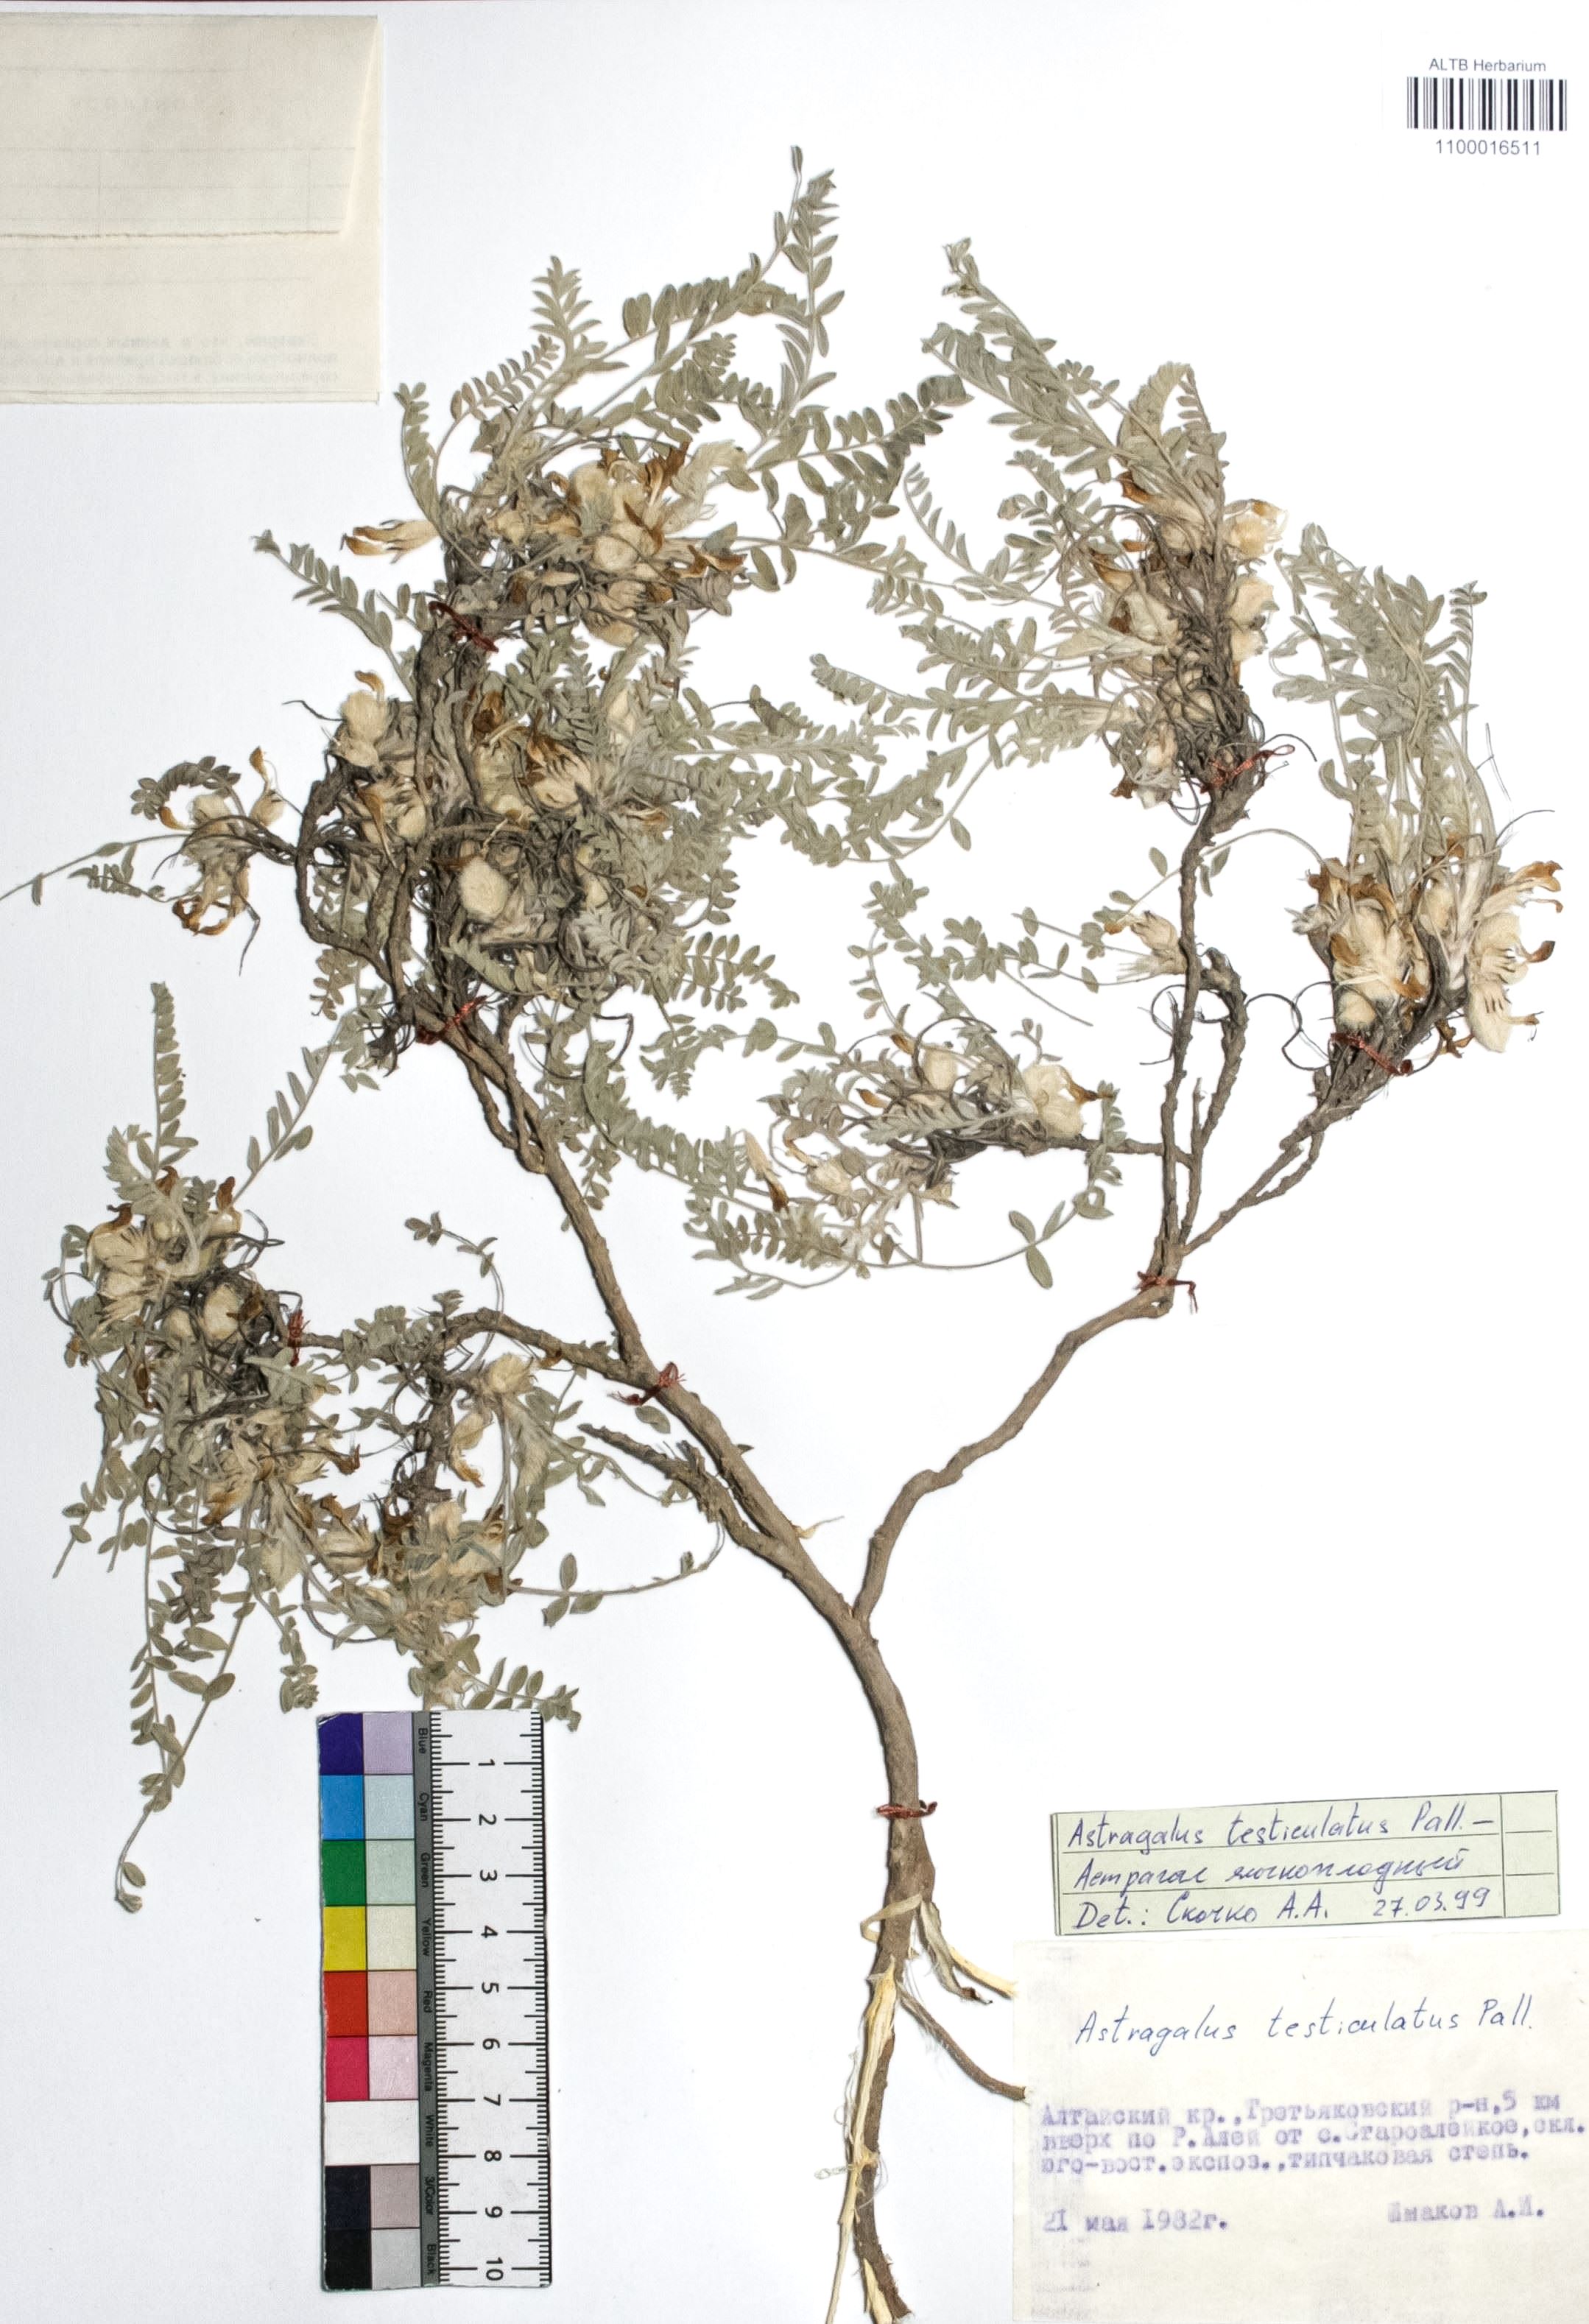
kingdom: Plantae
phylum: Tracheophyta
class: Magnoliopsida
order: Fabales
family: Fabaceae
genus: Astragalus
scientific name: Astragalus testiculatus
